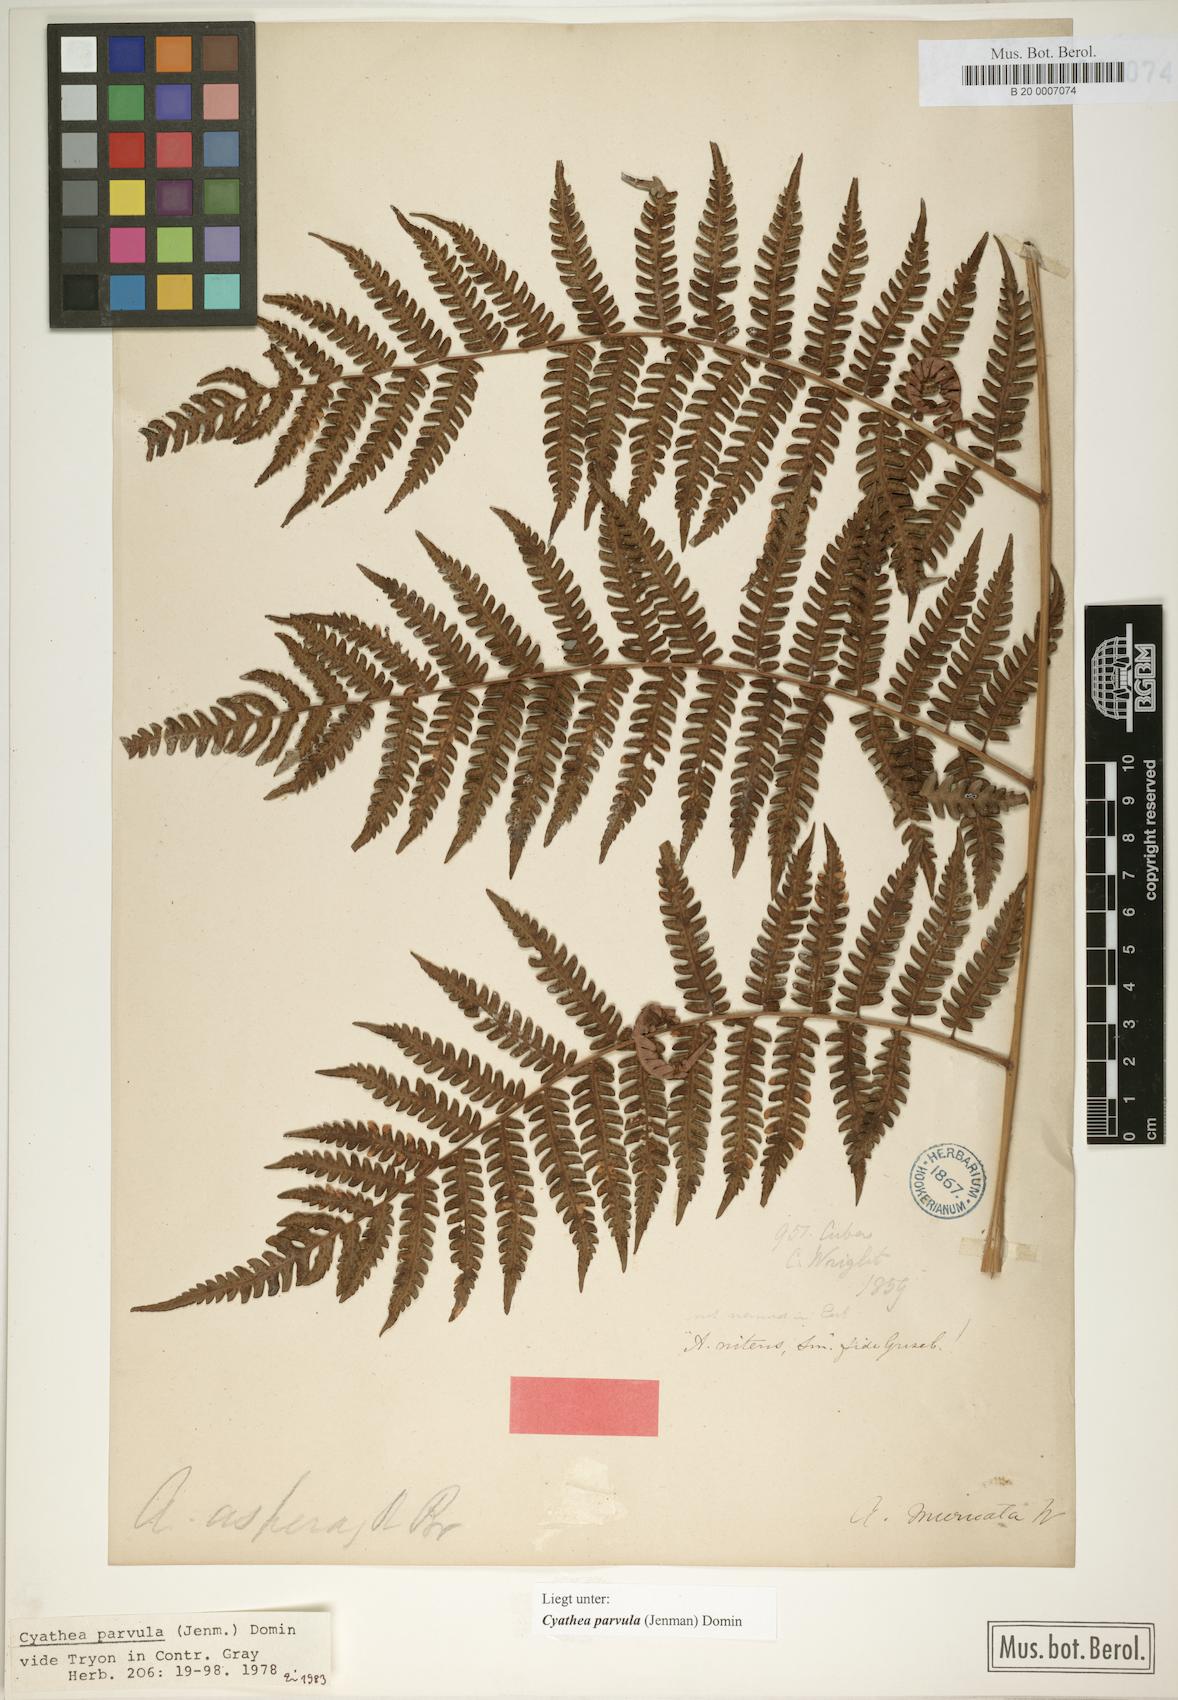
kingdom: Plantae
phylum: Tracheophyta
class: Polypodiopsida
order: Cyatheales
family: Cyatheaceae
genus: Cyathea
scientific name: Cyathea parvula
